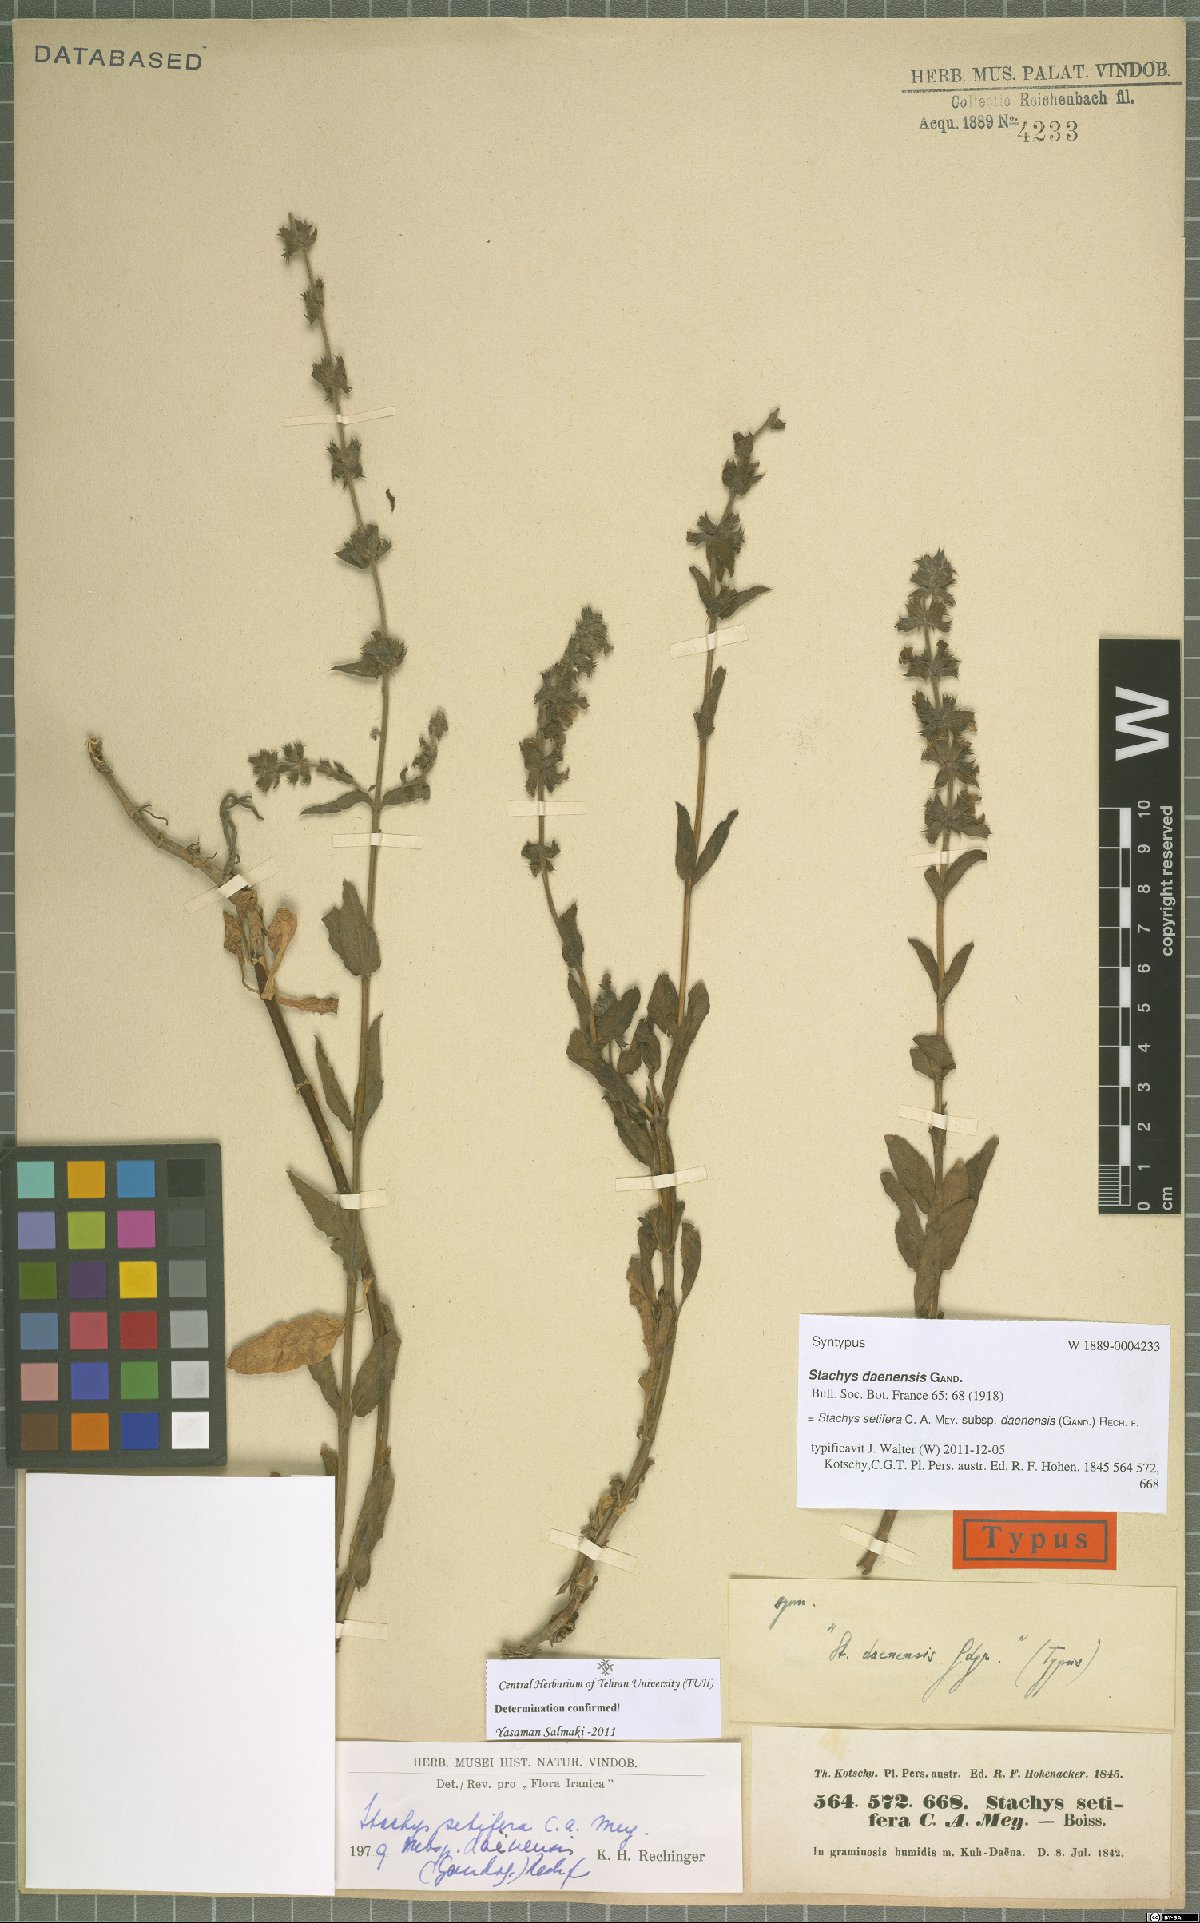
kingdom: Plantae
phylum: Tracheophyta
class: Magnoliopsida
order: Lamiales
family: Lamiaceae
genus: Stachys
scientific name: Stachys setifera
